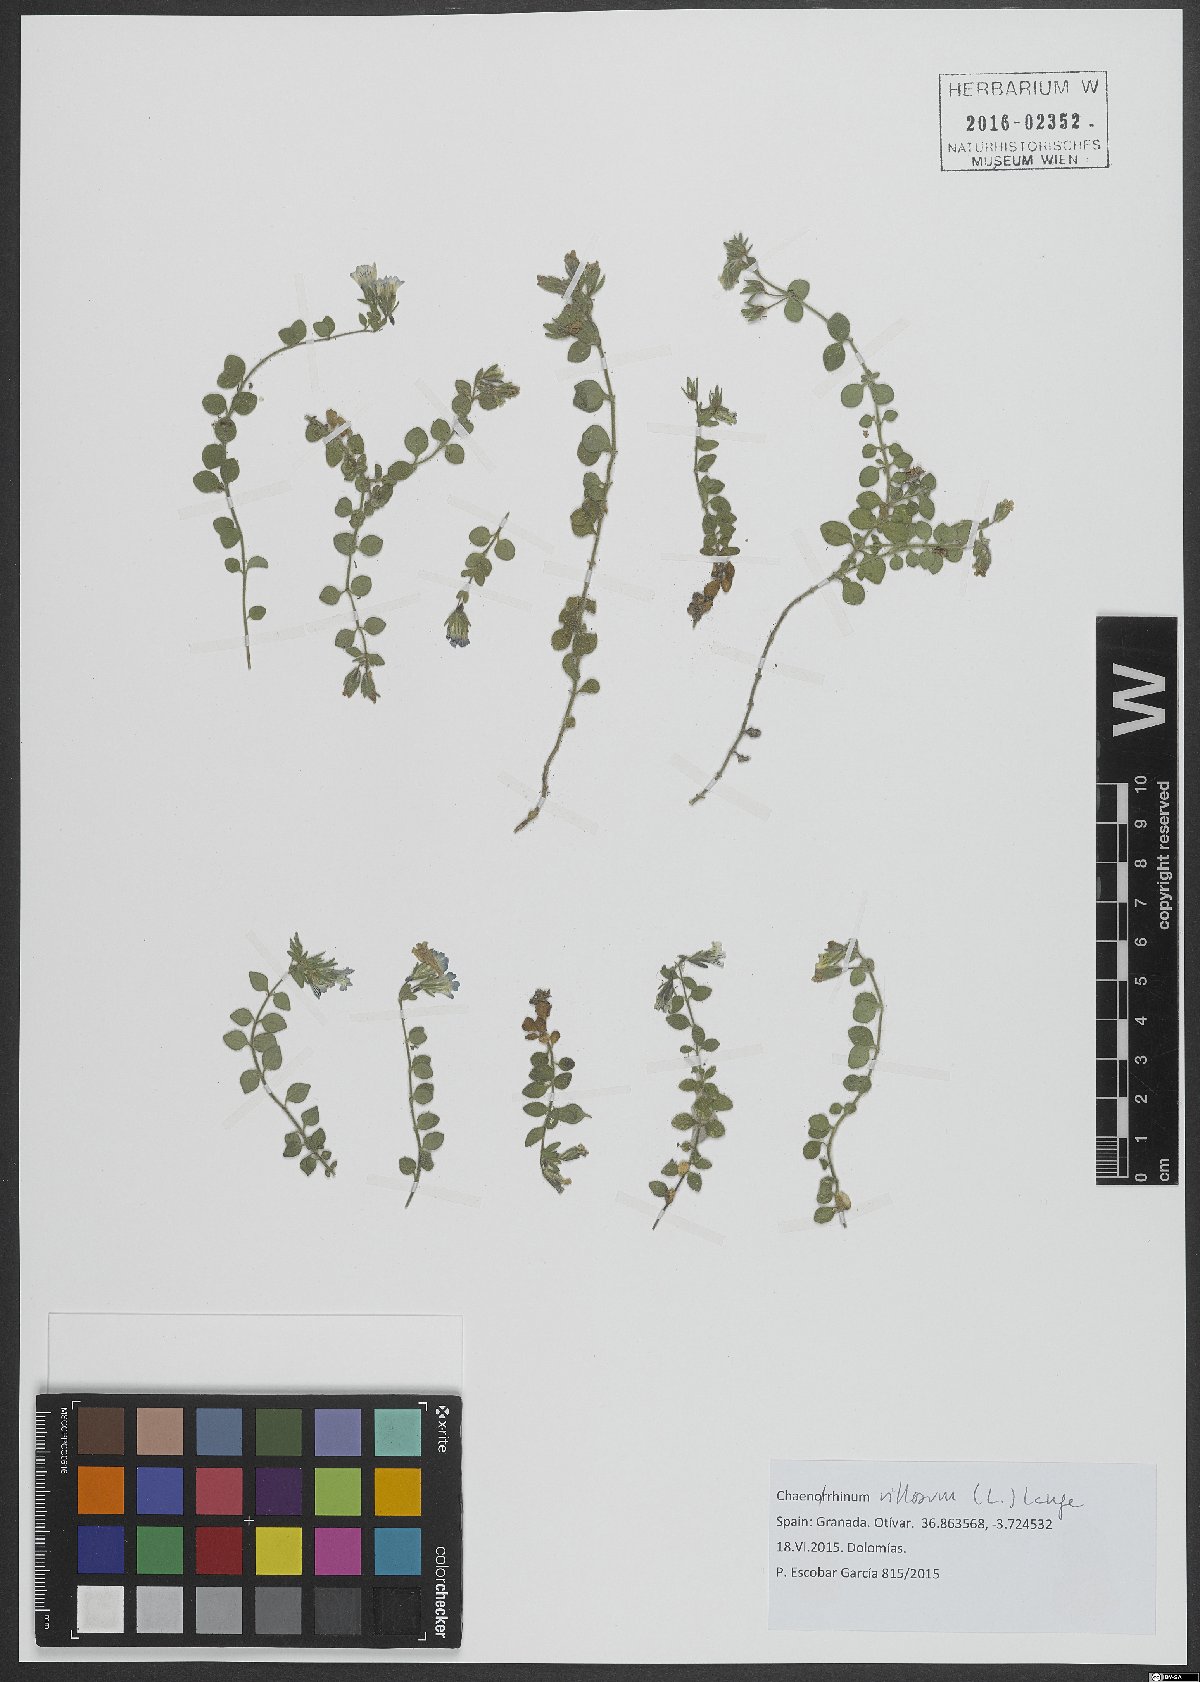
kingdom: Plantae
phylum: Tracheophyta
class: Magnoliopsida
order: Lamiales
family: Plantaginaceae
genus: Chaenorhinum
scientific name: Chaenorhinum villosum
